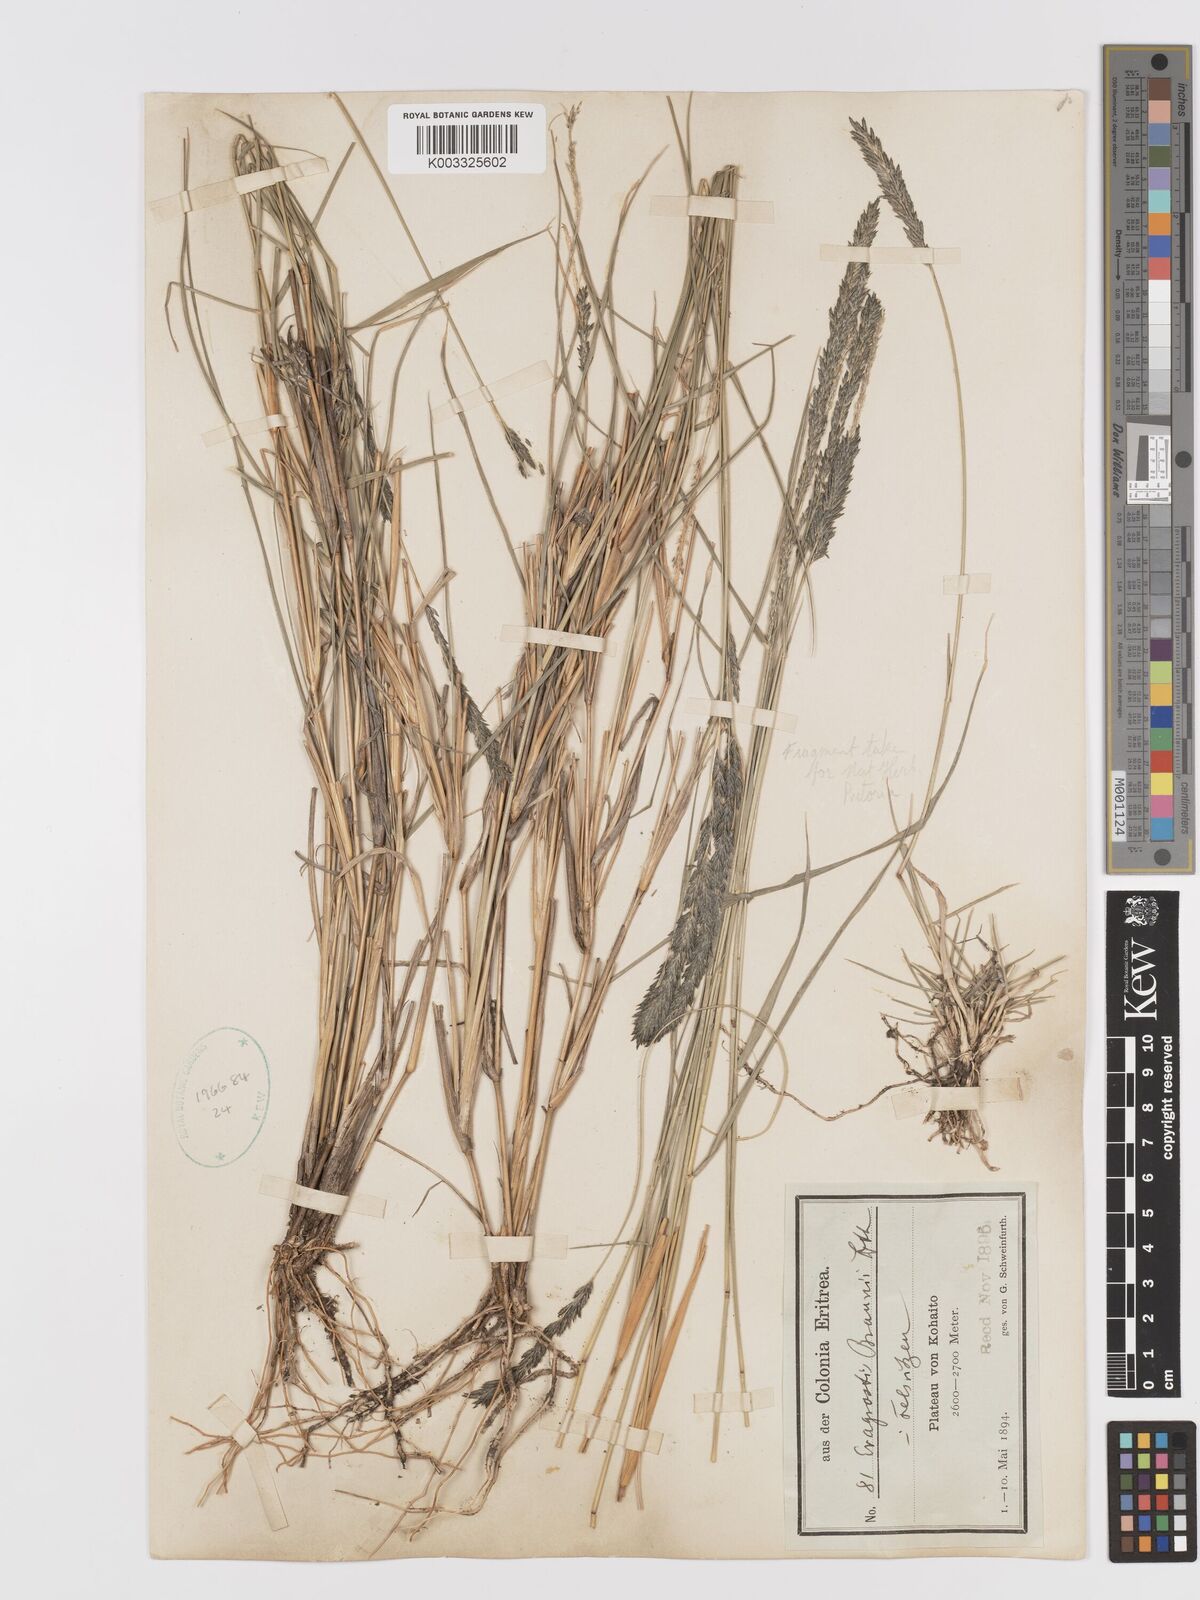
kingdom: Plantae
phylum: Tracheophyta
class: Liliopsida
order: Poales
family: Poaceae
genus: Eragrostis
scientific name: Eragrostis braunii
